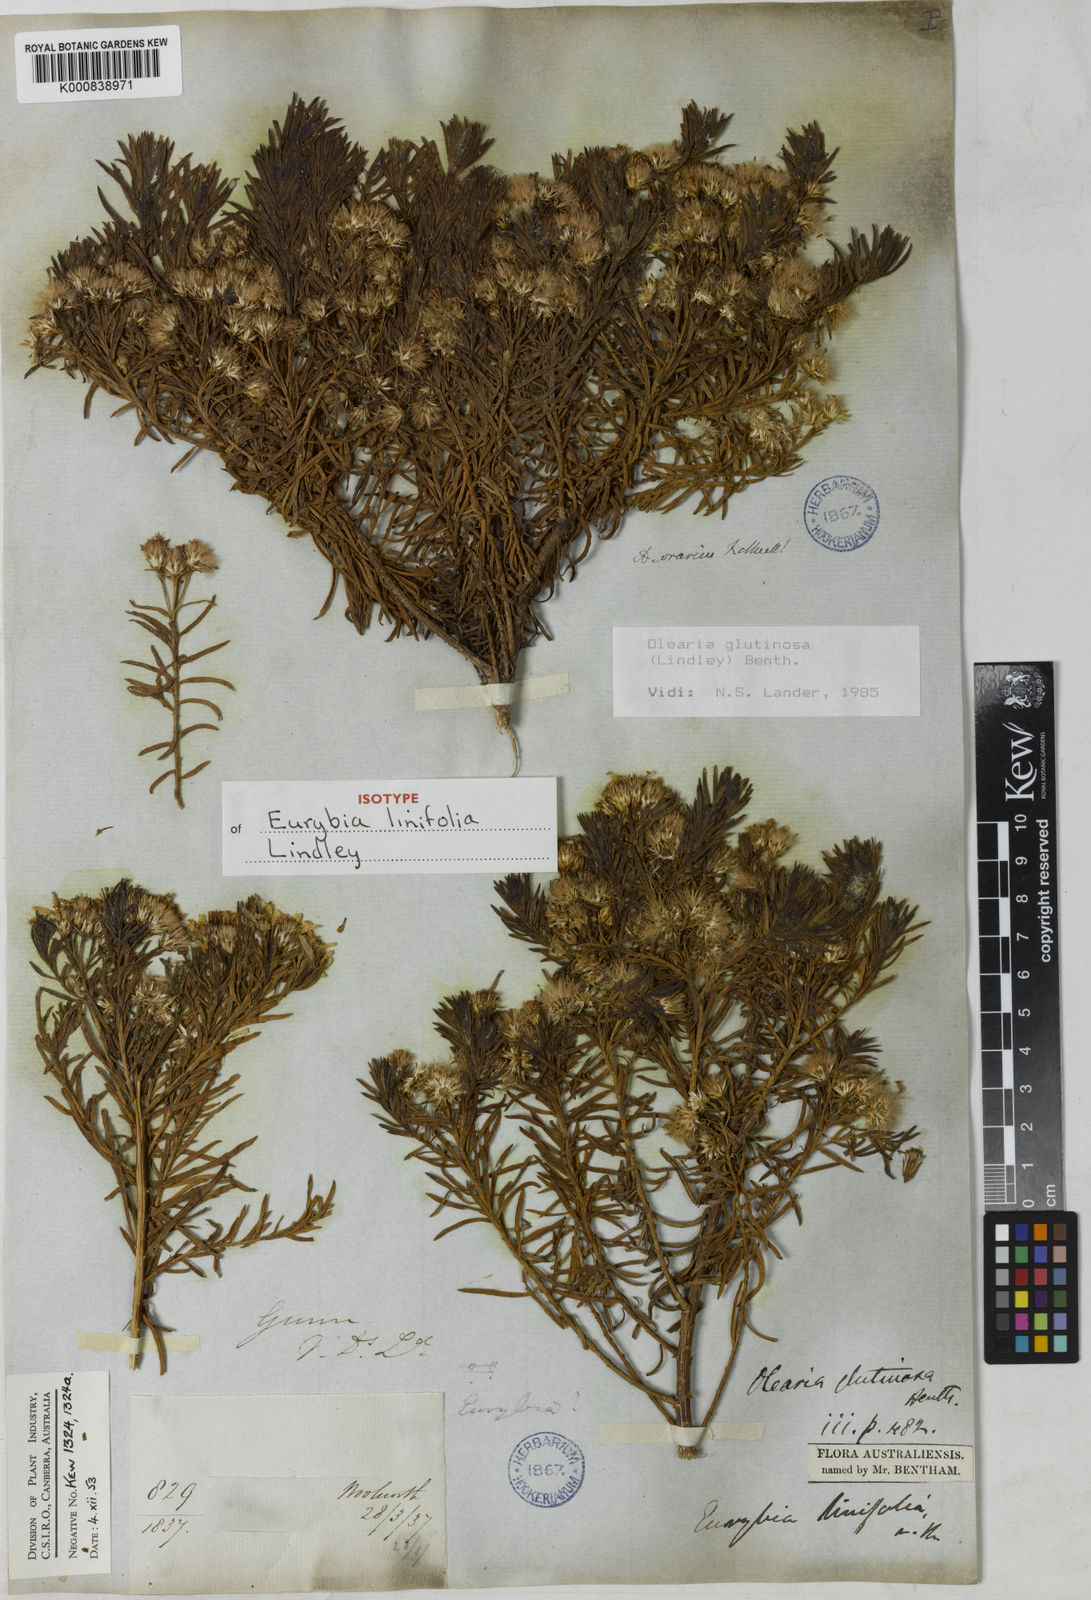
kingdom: Plantae
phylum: Tracheophyta
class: Magnoliopsida
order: Asterales
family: Asteraceae
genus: Olearia
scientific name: Olearia glutinosa
